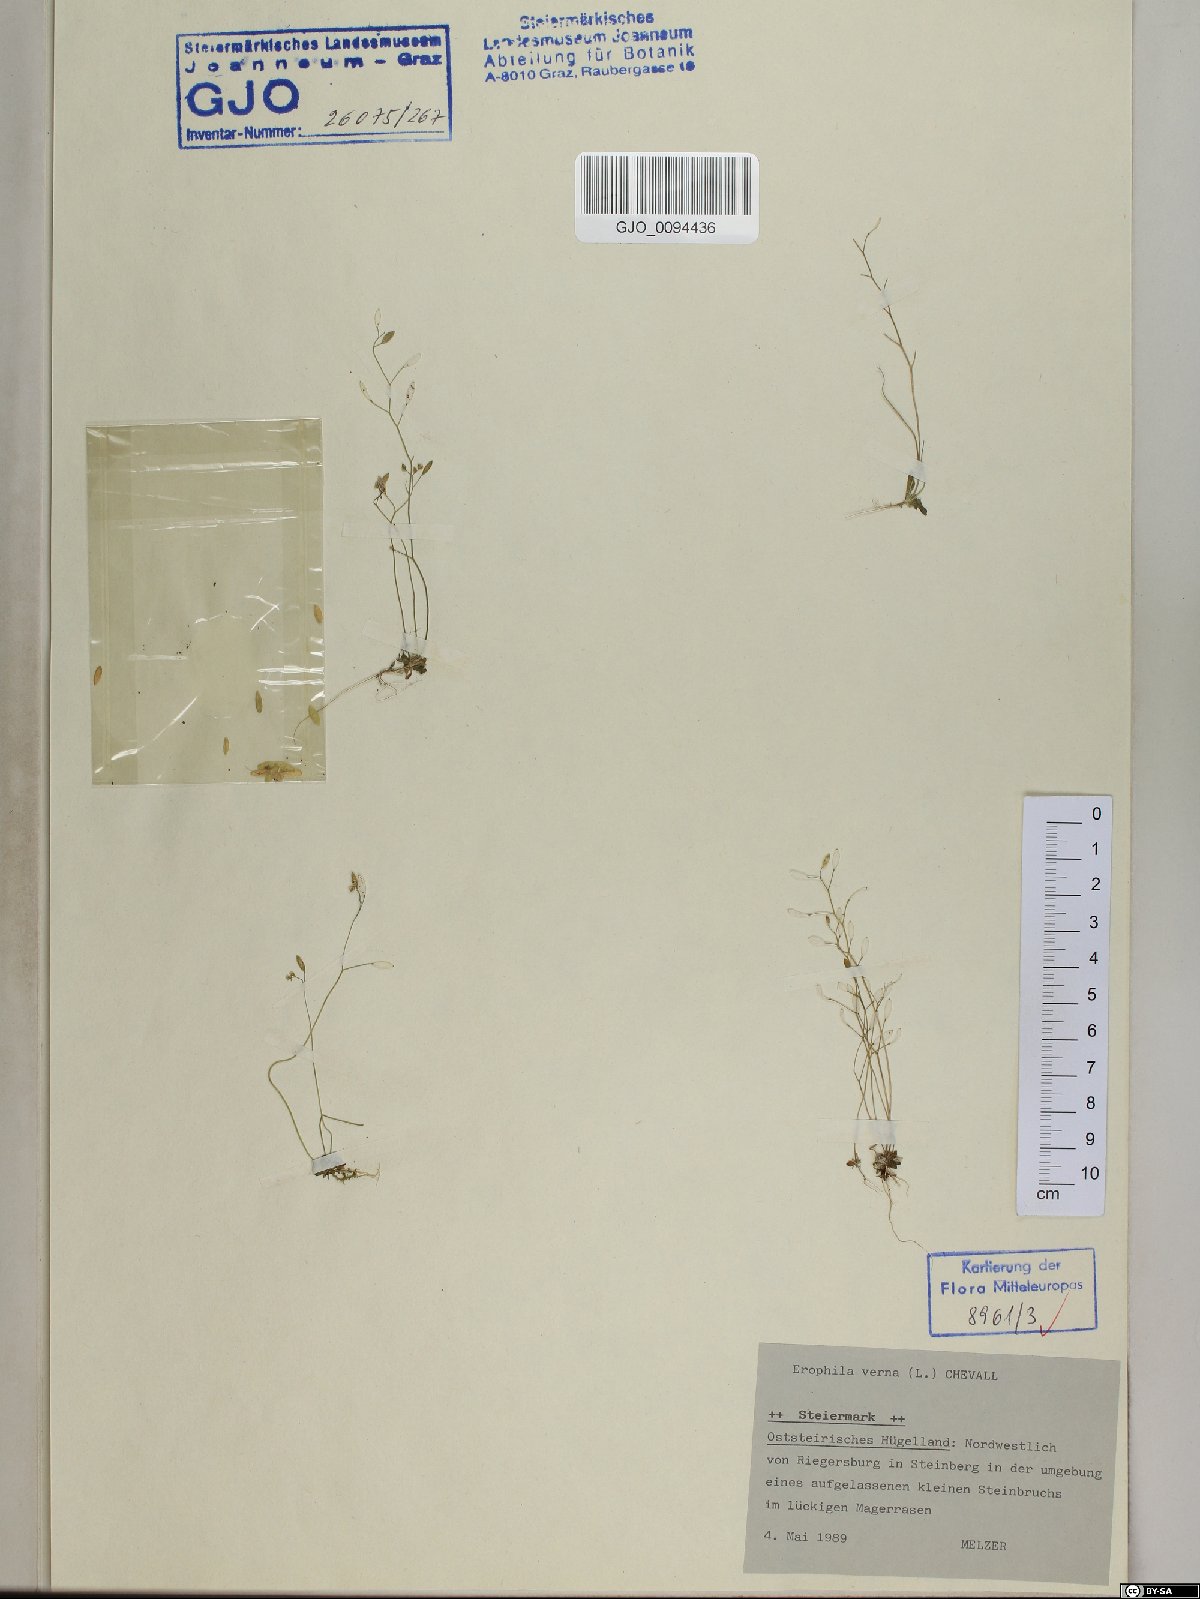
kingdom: Plantae
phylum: Tracheophyta
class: Magnoliopsida
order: Brassicales
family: Brassicaceae
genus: Draba
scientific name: Draba verna
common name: Spring draba
